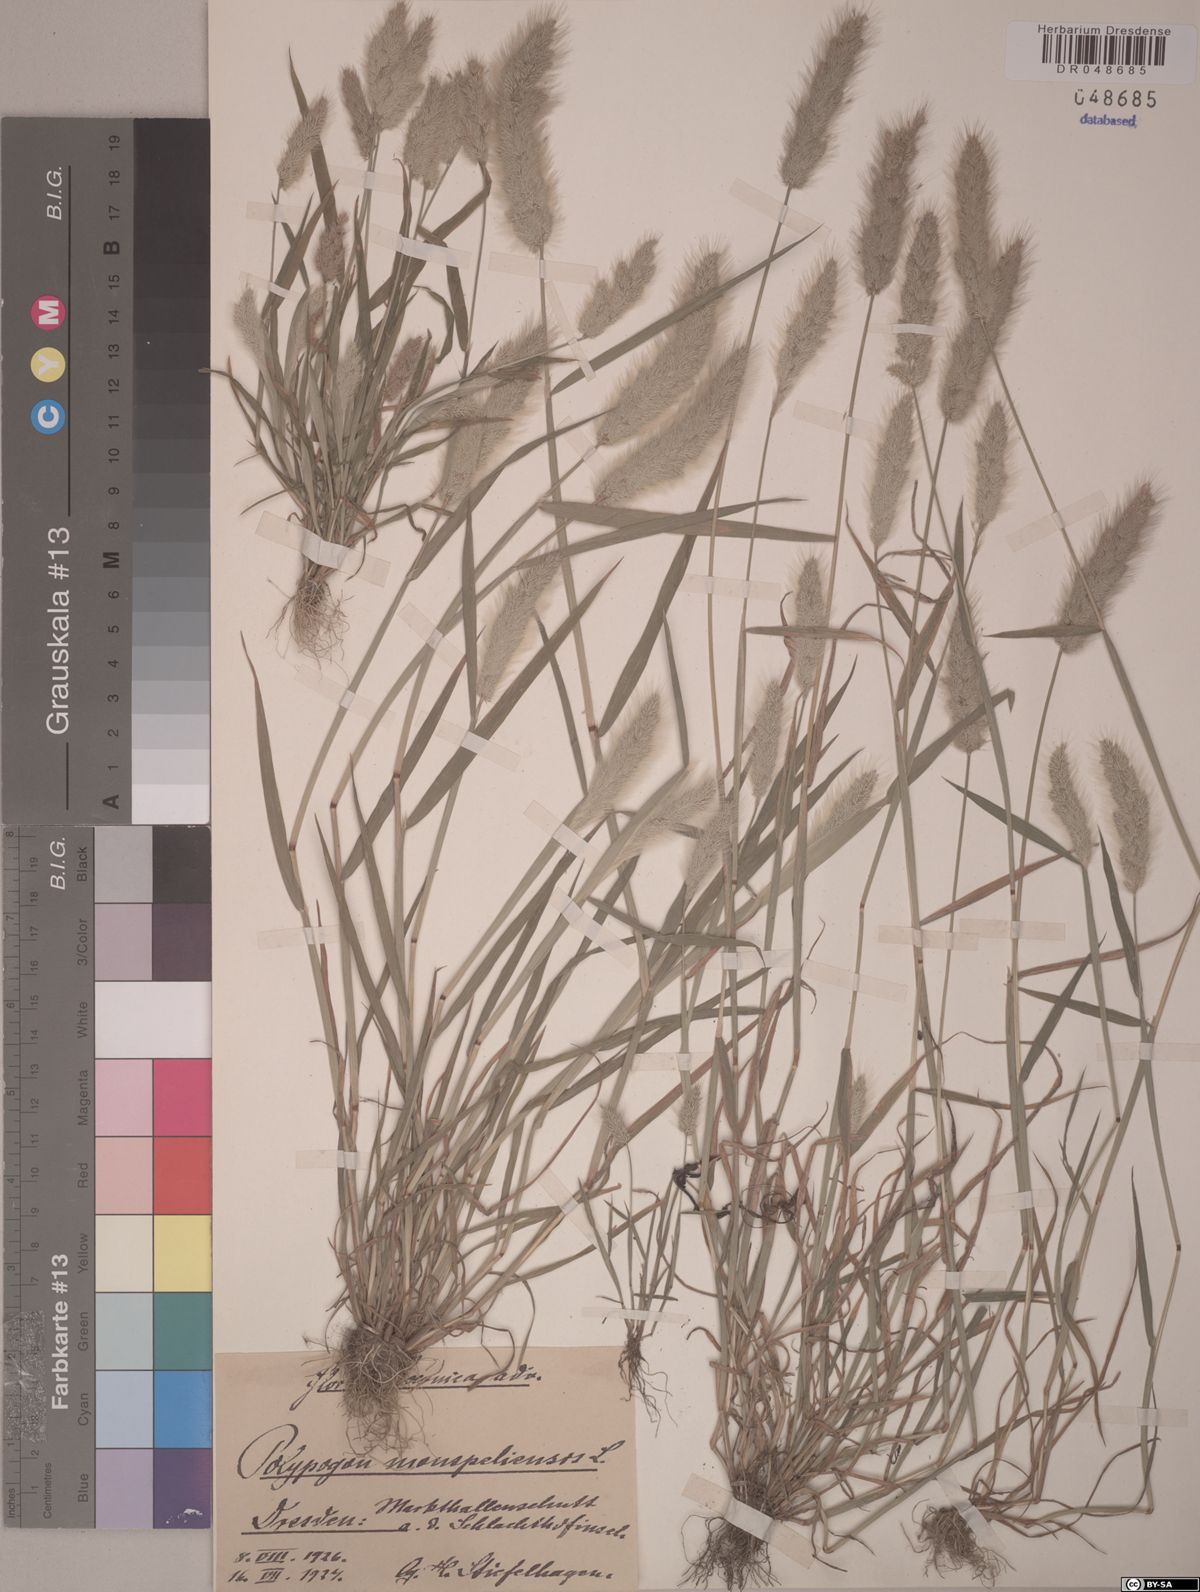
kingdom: Plantae
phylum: Tracheophyta
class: Liliopsida
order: Poales
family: Poaceae
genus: Polypogon
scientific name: Polypogon monspeliensis
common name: Annual rabbitsfoot grass
